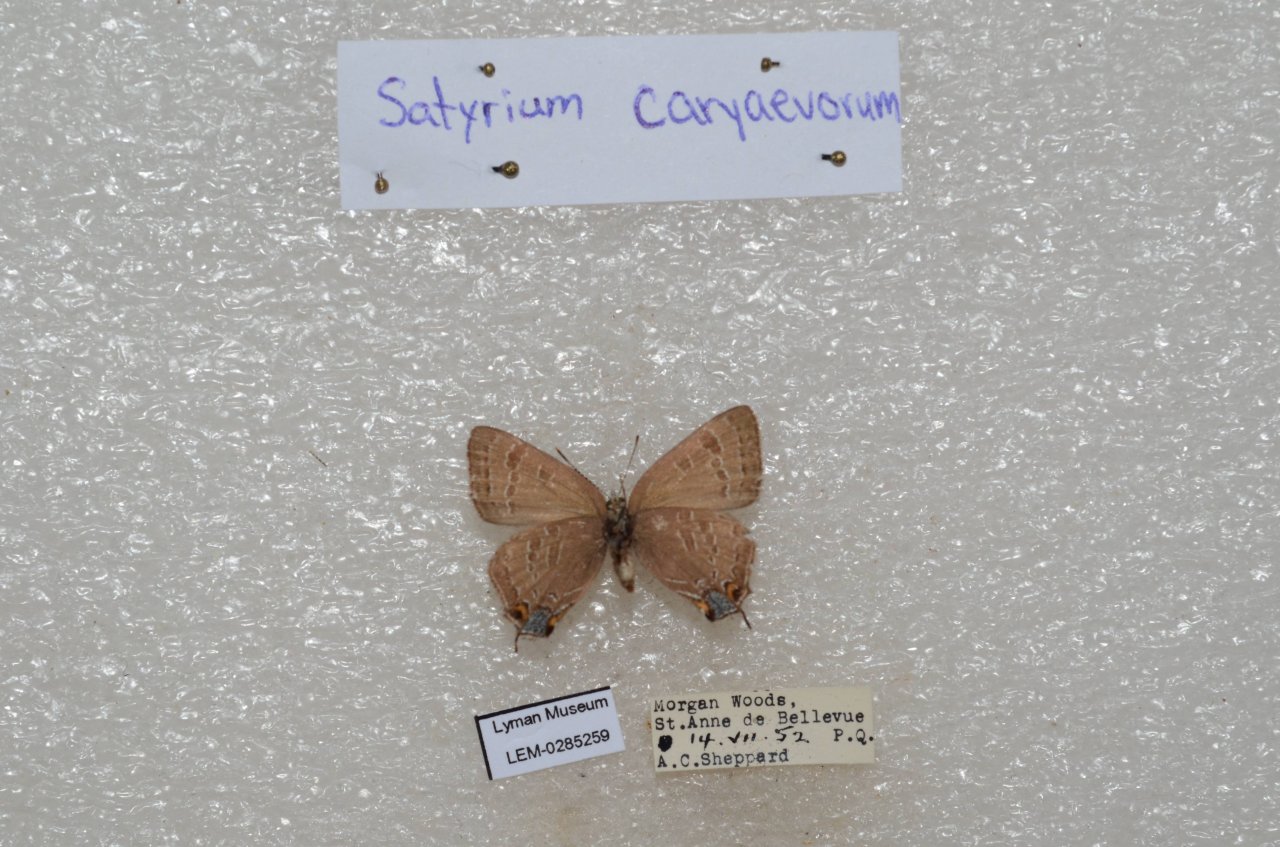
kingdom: Animalia
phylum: Arthropoda
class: Insecta
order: Lepidoptera
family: Lycaenidae
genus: Strymon
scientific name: Strymon caryaevorus
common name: Hickory Hairstreak
